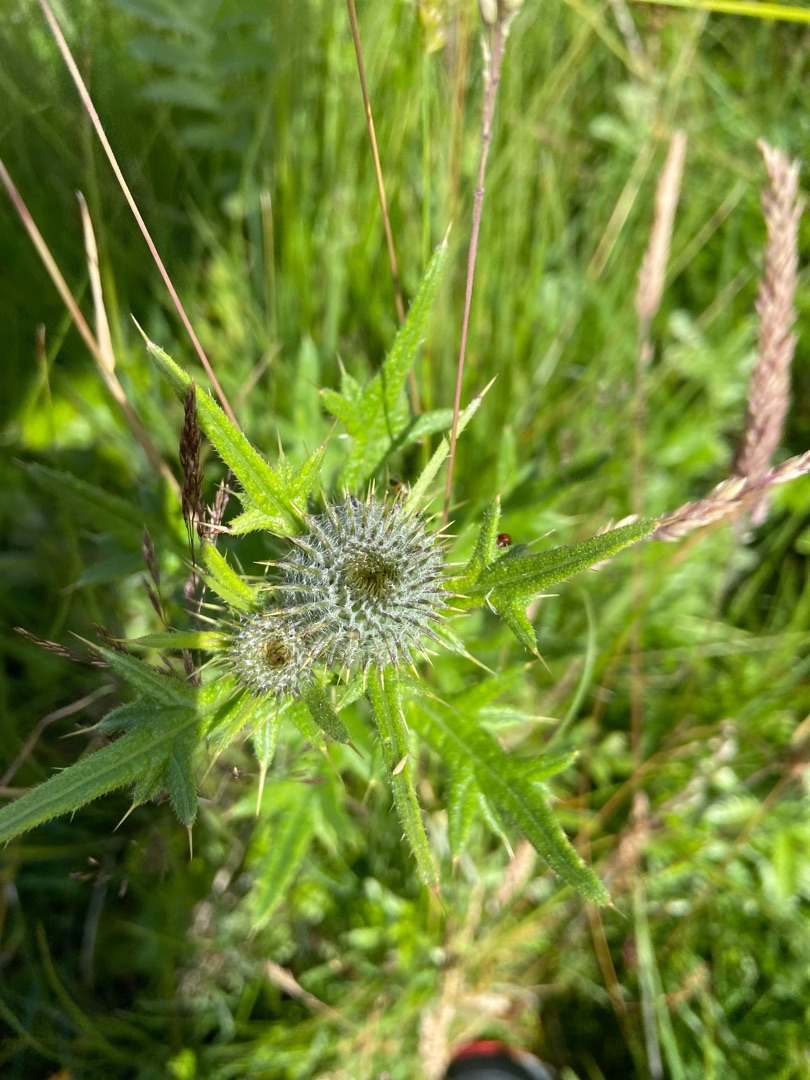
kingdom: Plantae
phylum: Tracheophyta
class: Magnoliopsida
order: Asterales
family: Asteraceae
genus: Cirsium
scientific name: Cirsium vulgare
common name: Horse-tidsel
